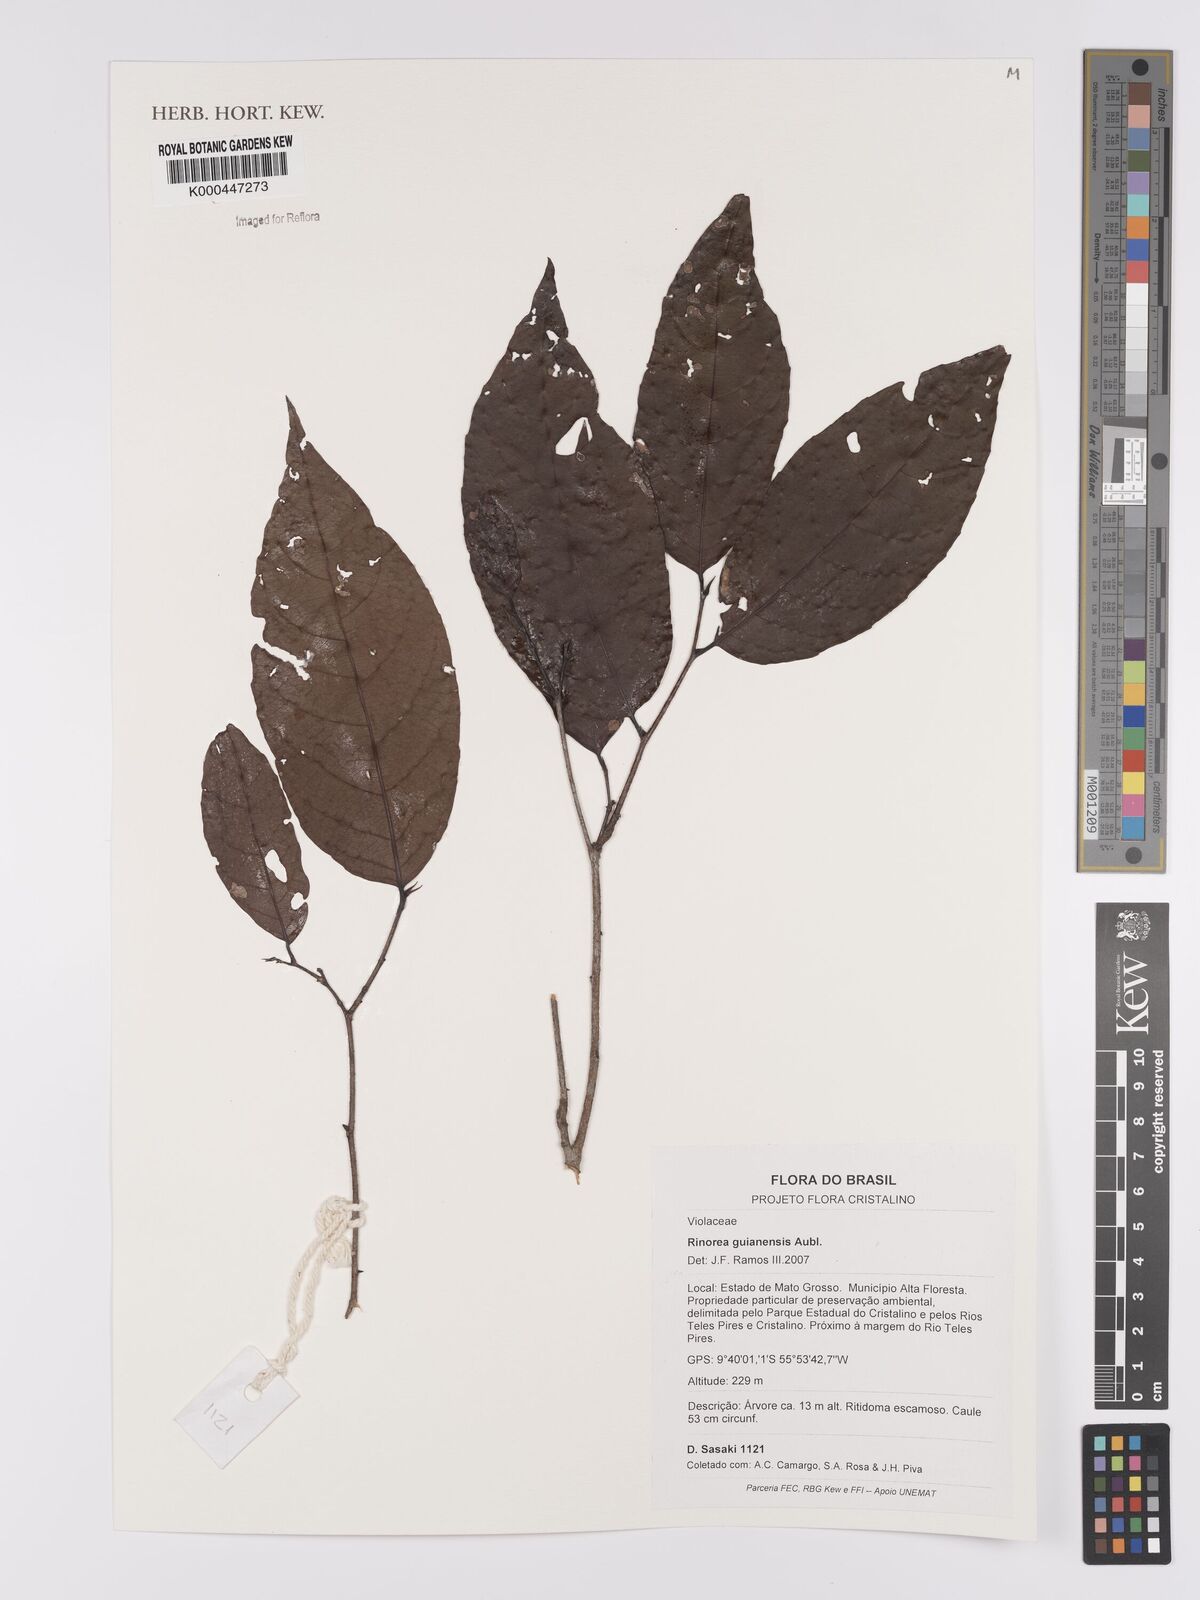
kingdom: Plantae
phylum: Tracheophyta
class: Magnoliopsida
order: Malpighiales
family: Violaceae
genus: Rinorea
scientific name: Rinorea guianensis
